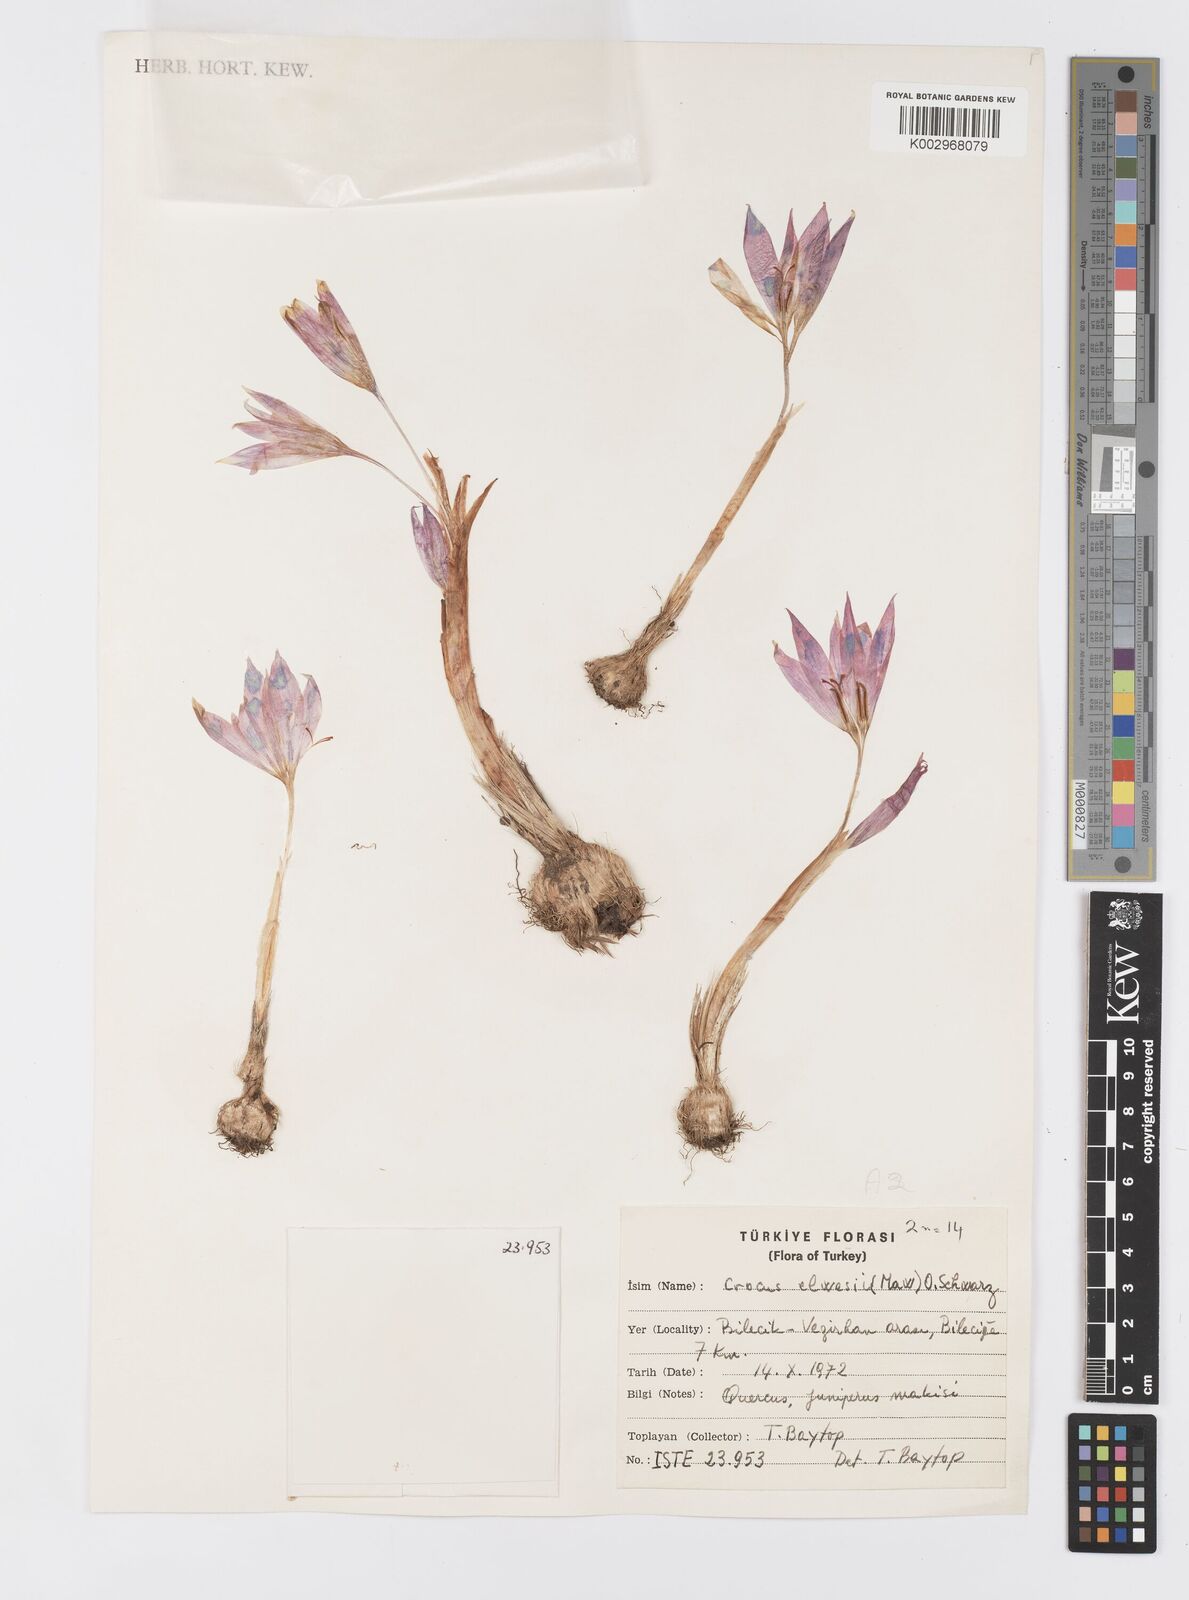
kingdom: Plantae
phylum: Tracheophyta
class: Liliopsida
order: Asparagales
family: Iridaceae
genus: Crocus
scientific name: Crocus
